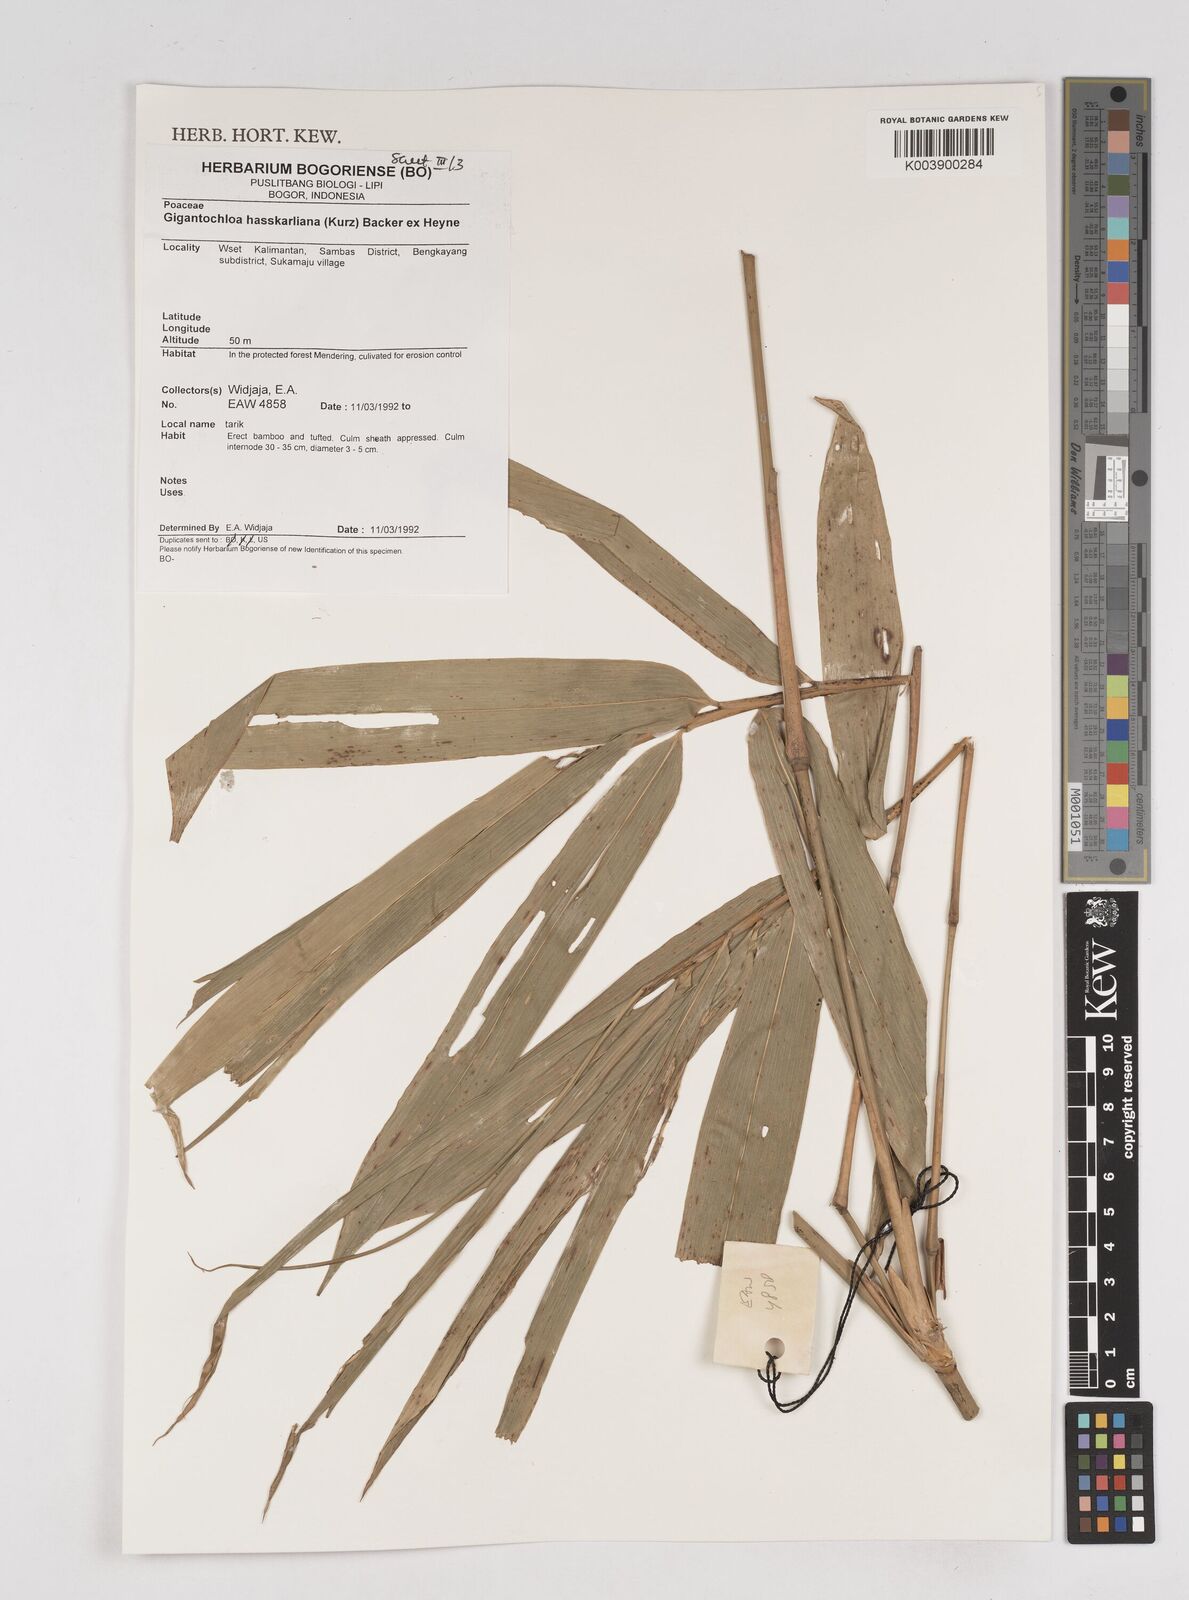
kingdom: Plantae
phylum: Tracheophyta
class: Liliopsida
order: Poales
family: Poaceae
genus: Gigantochloa
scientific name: Gigantochloa hasskarliana
